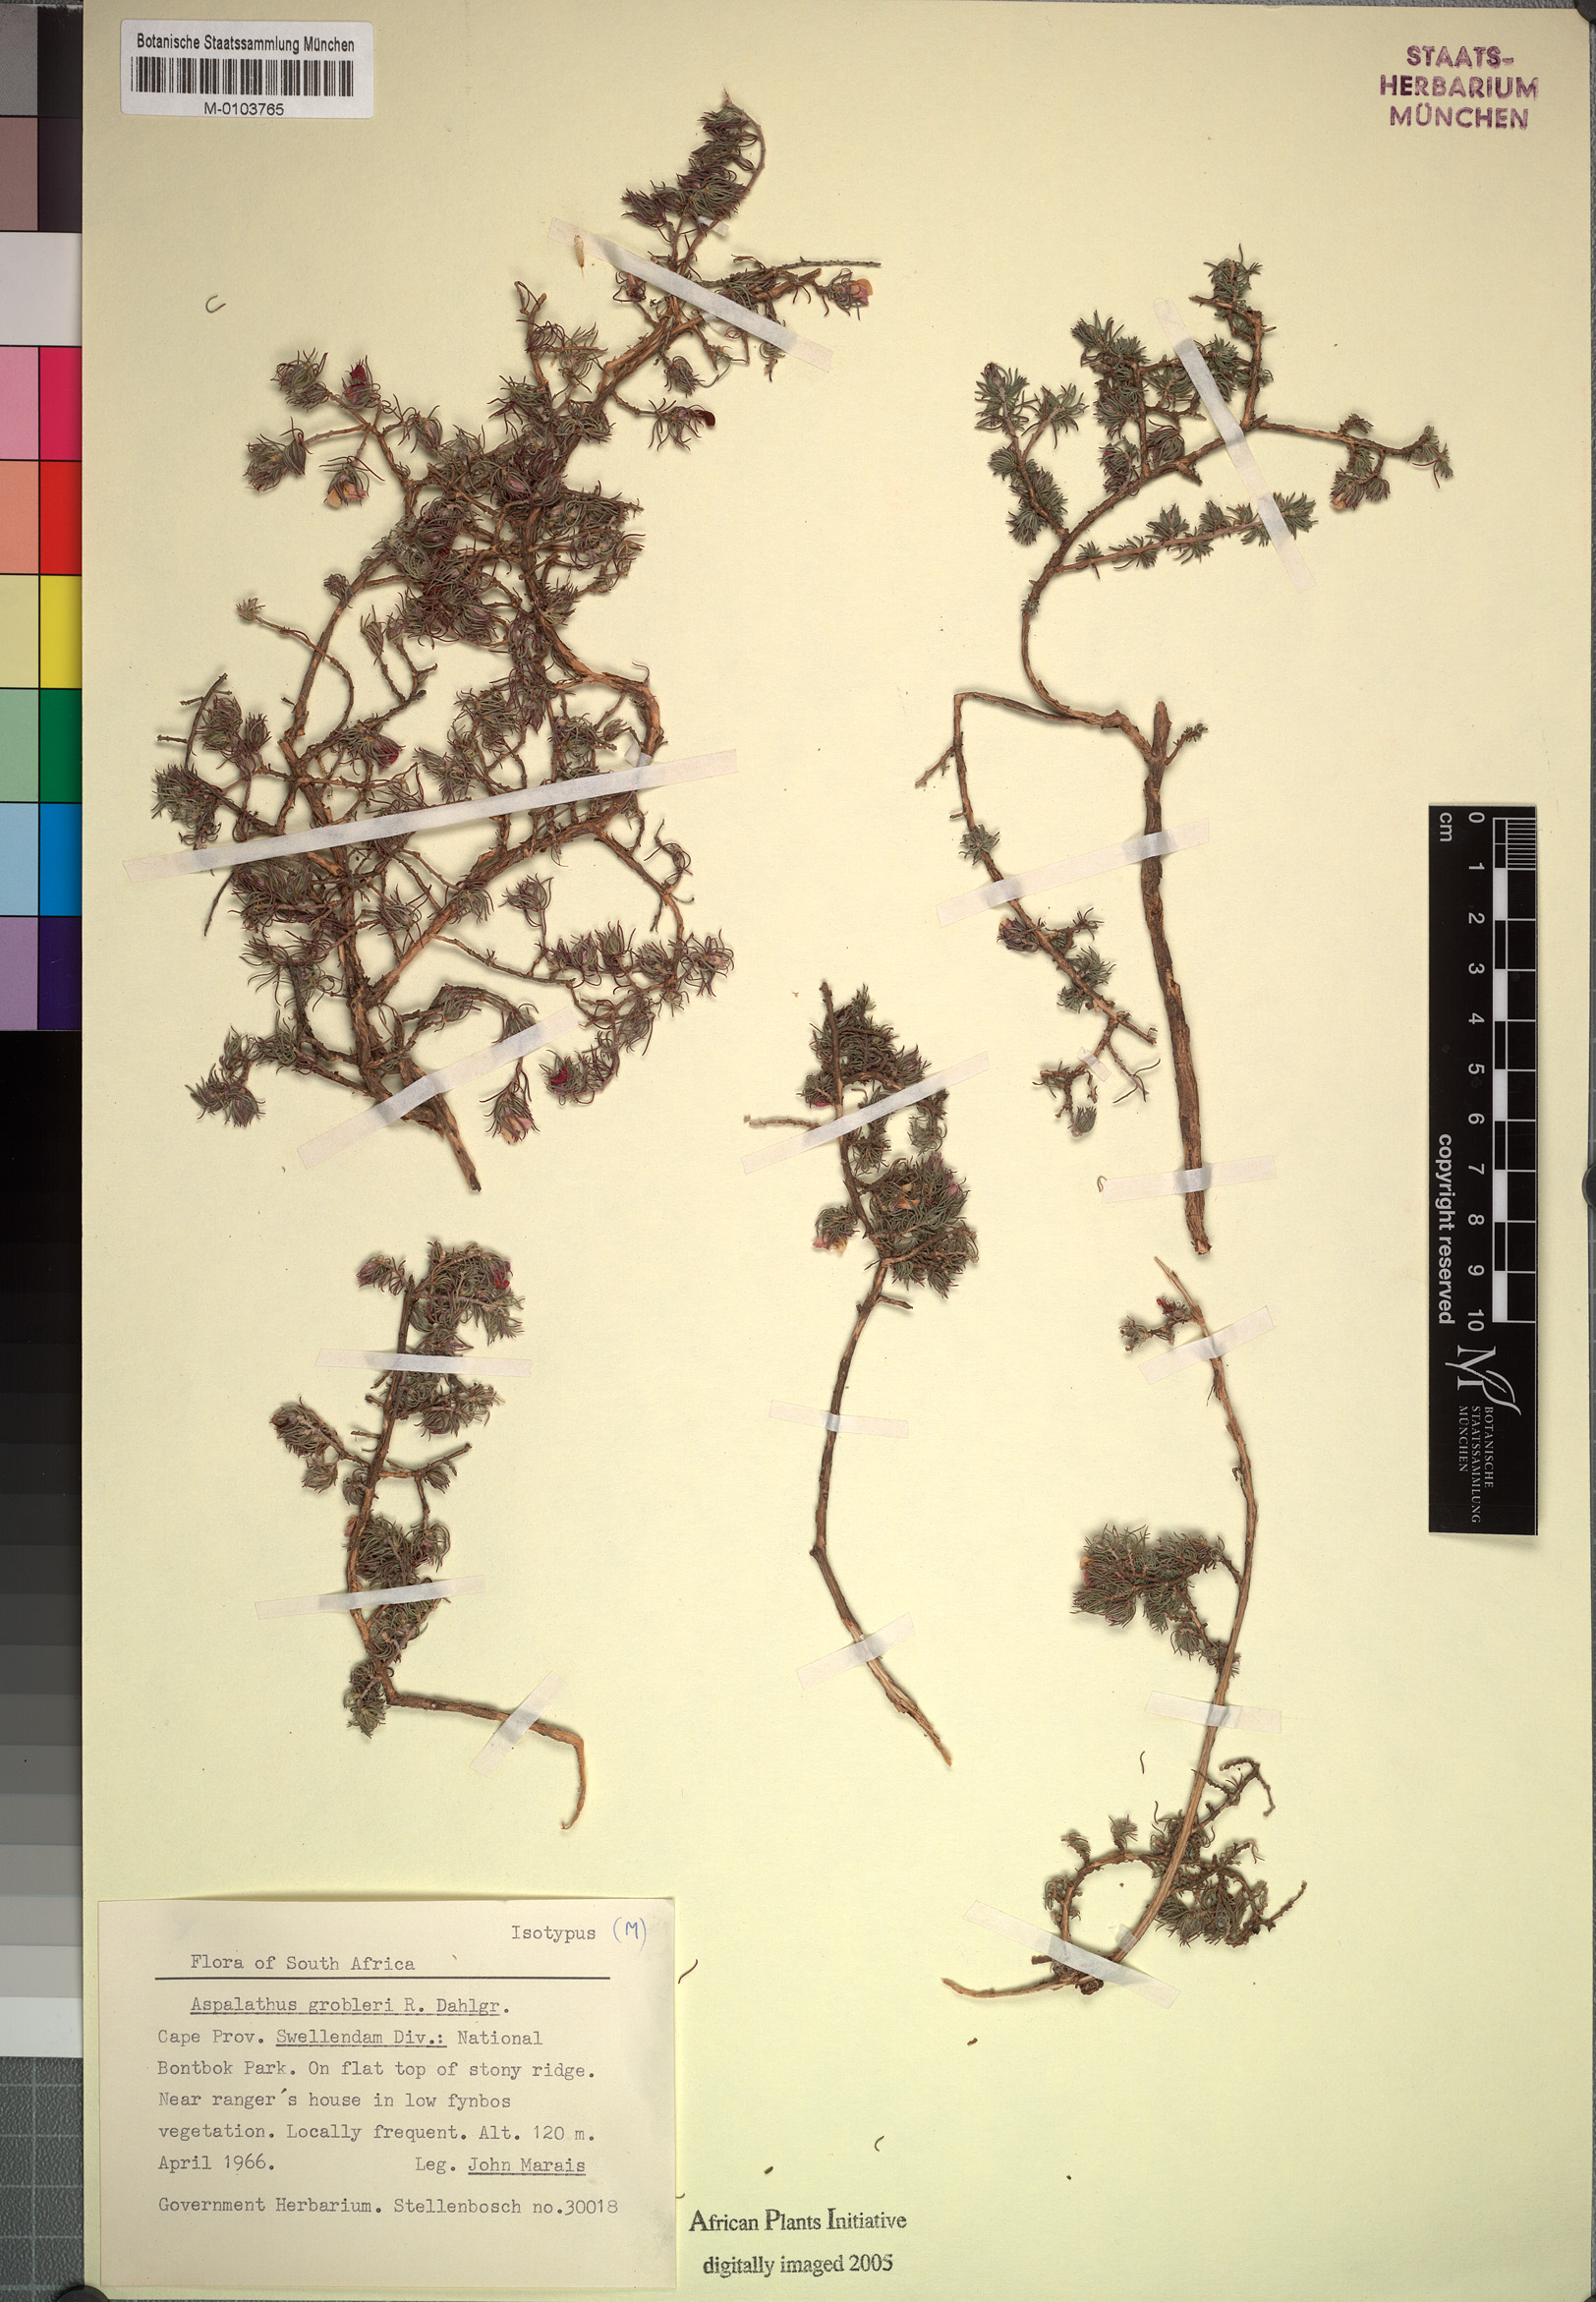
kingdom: Plantae
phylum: Tracheophyta
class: Magnoliopsida
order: Fabales
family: Fabaceae
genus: Aspalathus
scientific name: Aspalathus grobleri
